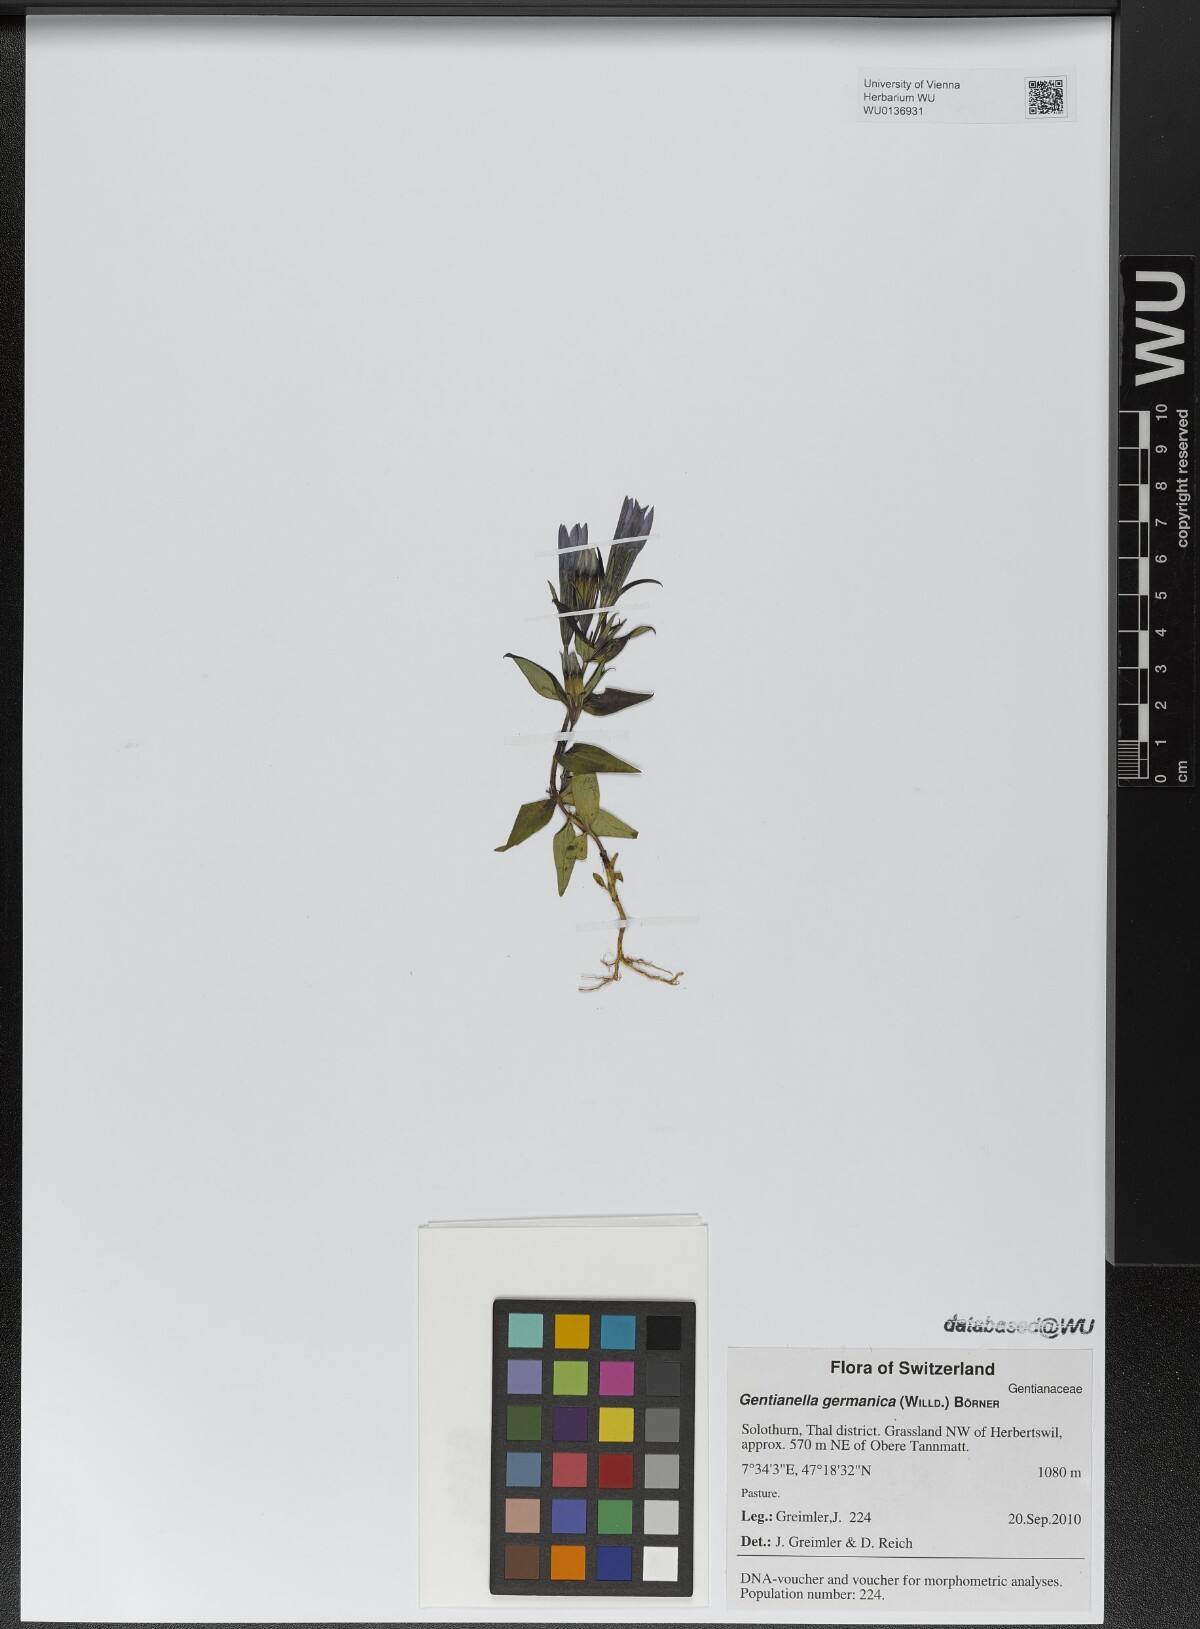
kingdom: Plantae
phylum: Tracheophyta
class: Magnoliopsida
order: Gentianales
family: Gentianaceae
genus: Gentianella
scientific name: Gentianella germanica
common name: Chiltern-gentian
